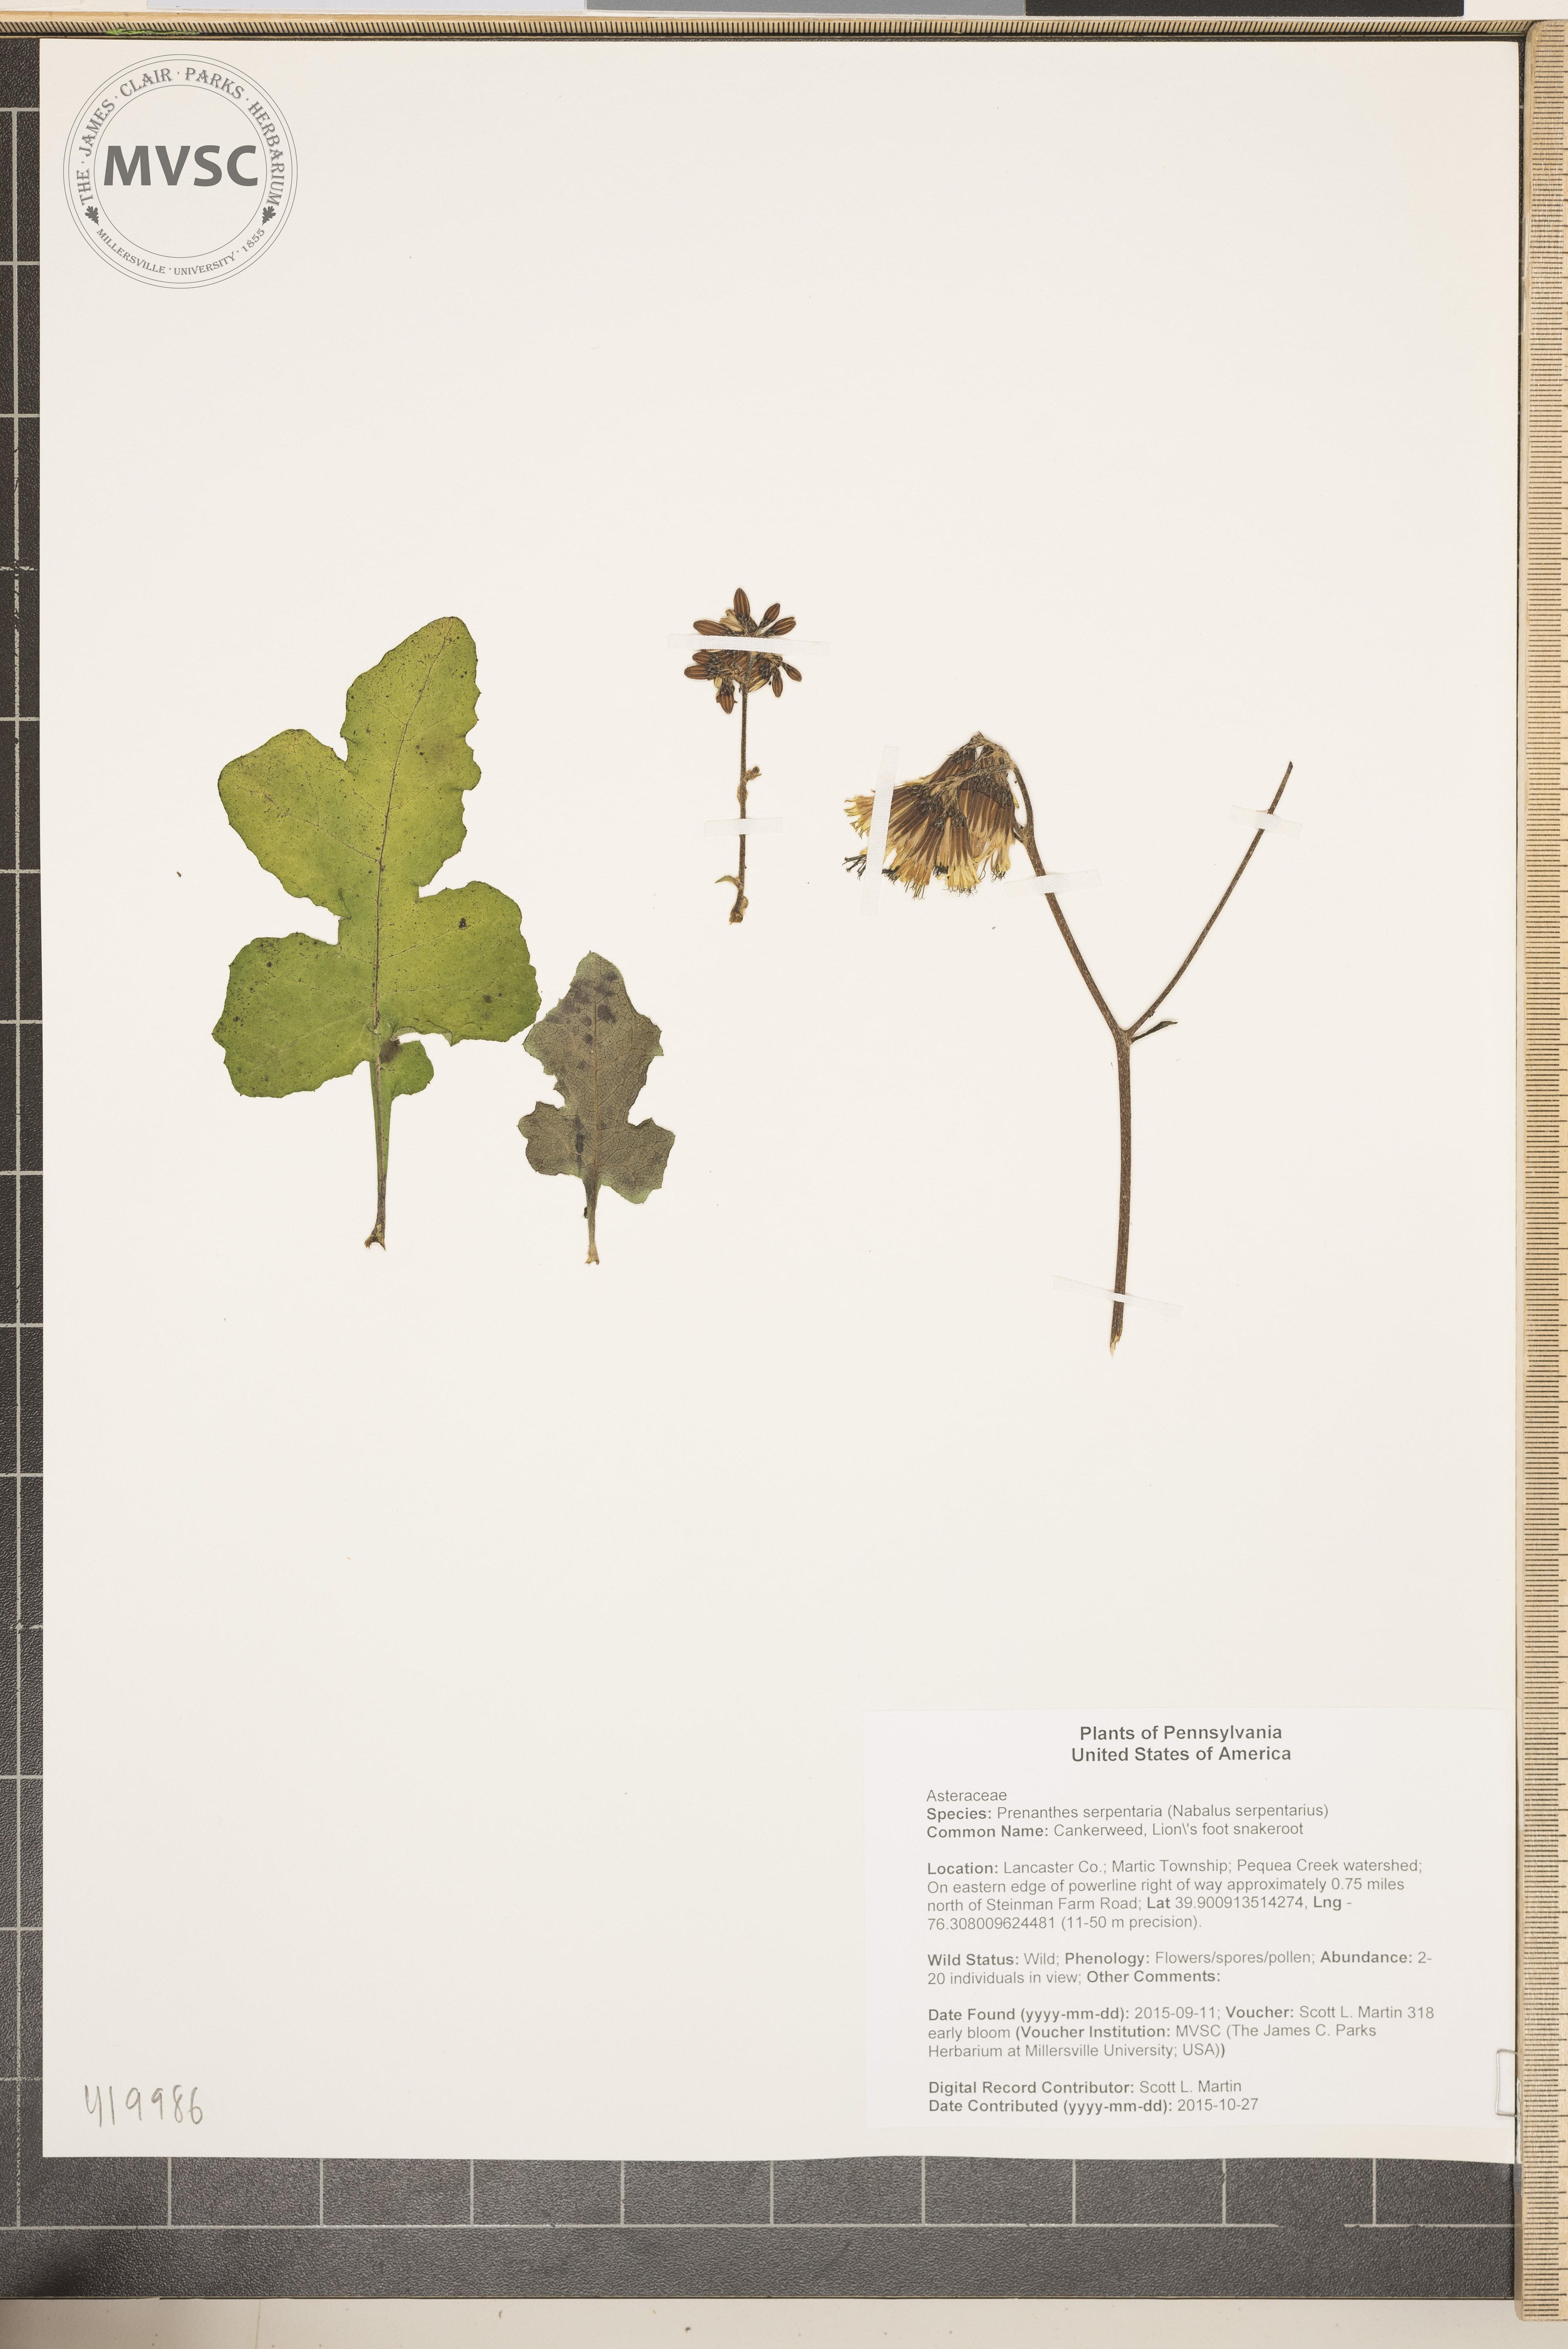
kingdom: Plantae
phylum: Tracheophyta
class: Magnoliopsida
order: Asterales
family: Asteraceae
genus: Nabalus
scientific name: Nabalus serpentarius
